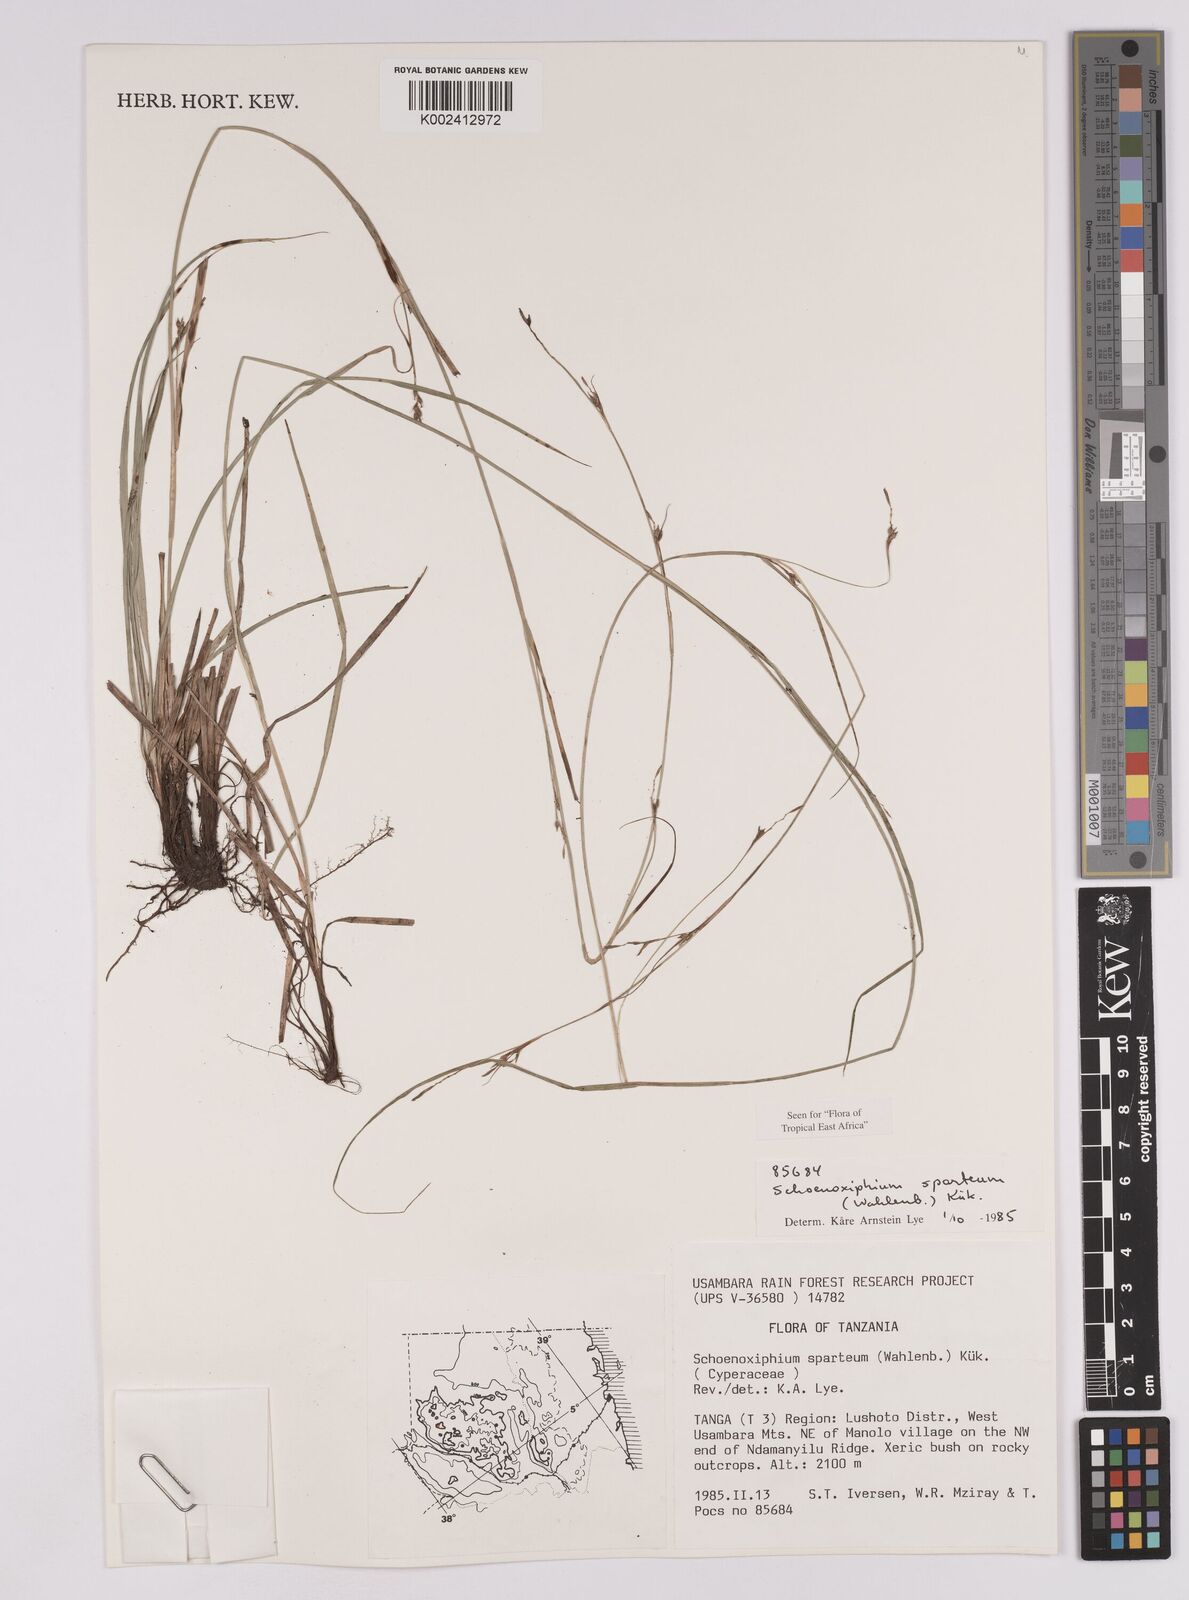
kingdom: Plantae
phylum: Tracheophyta
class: Liliopsida
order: Poales
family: Cyperaceae
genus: Carex
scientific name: Carex spartea
